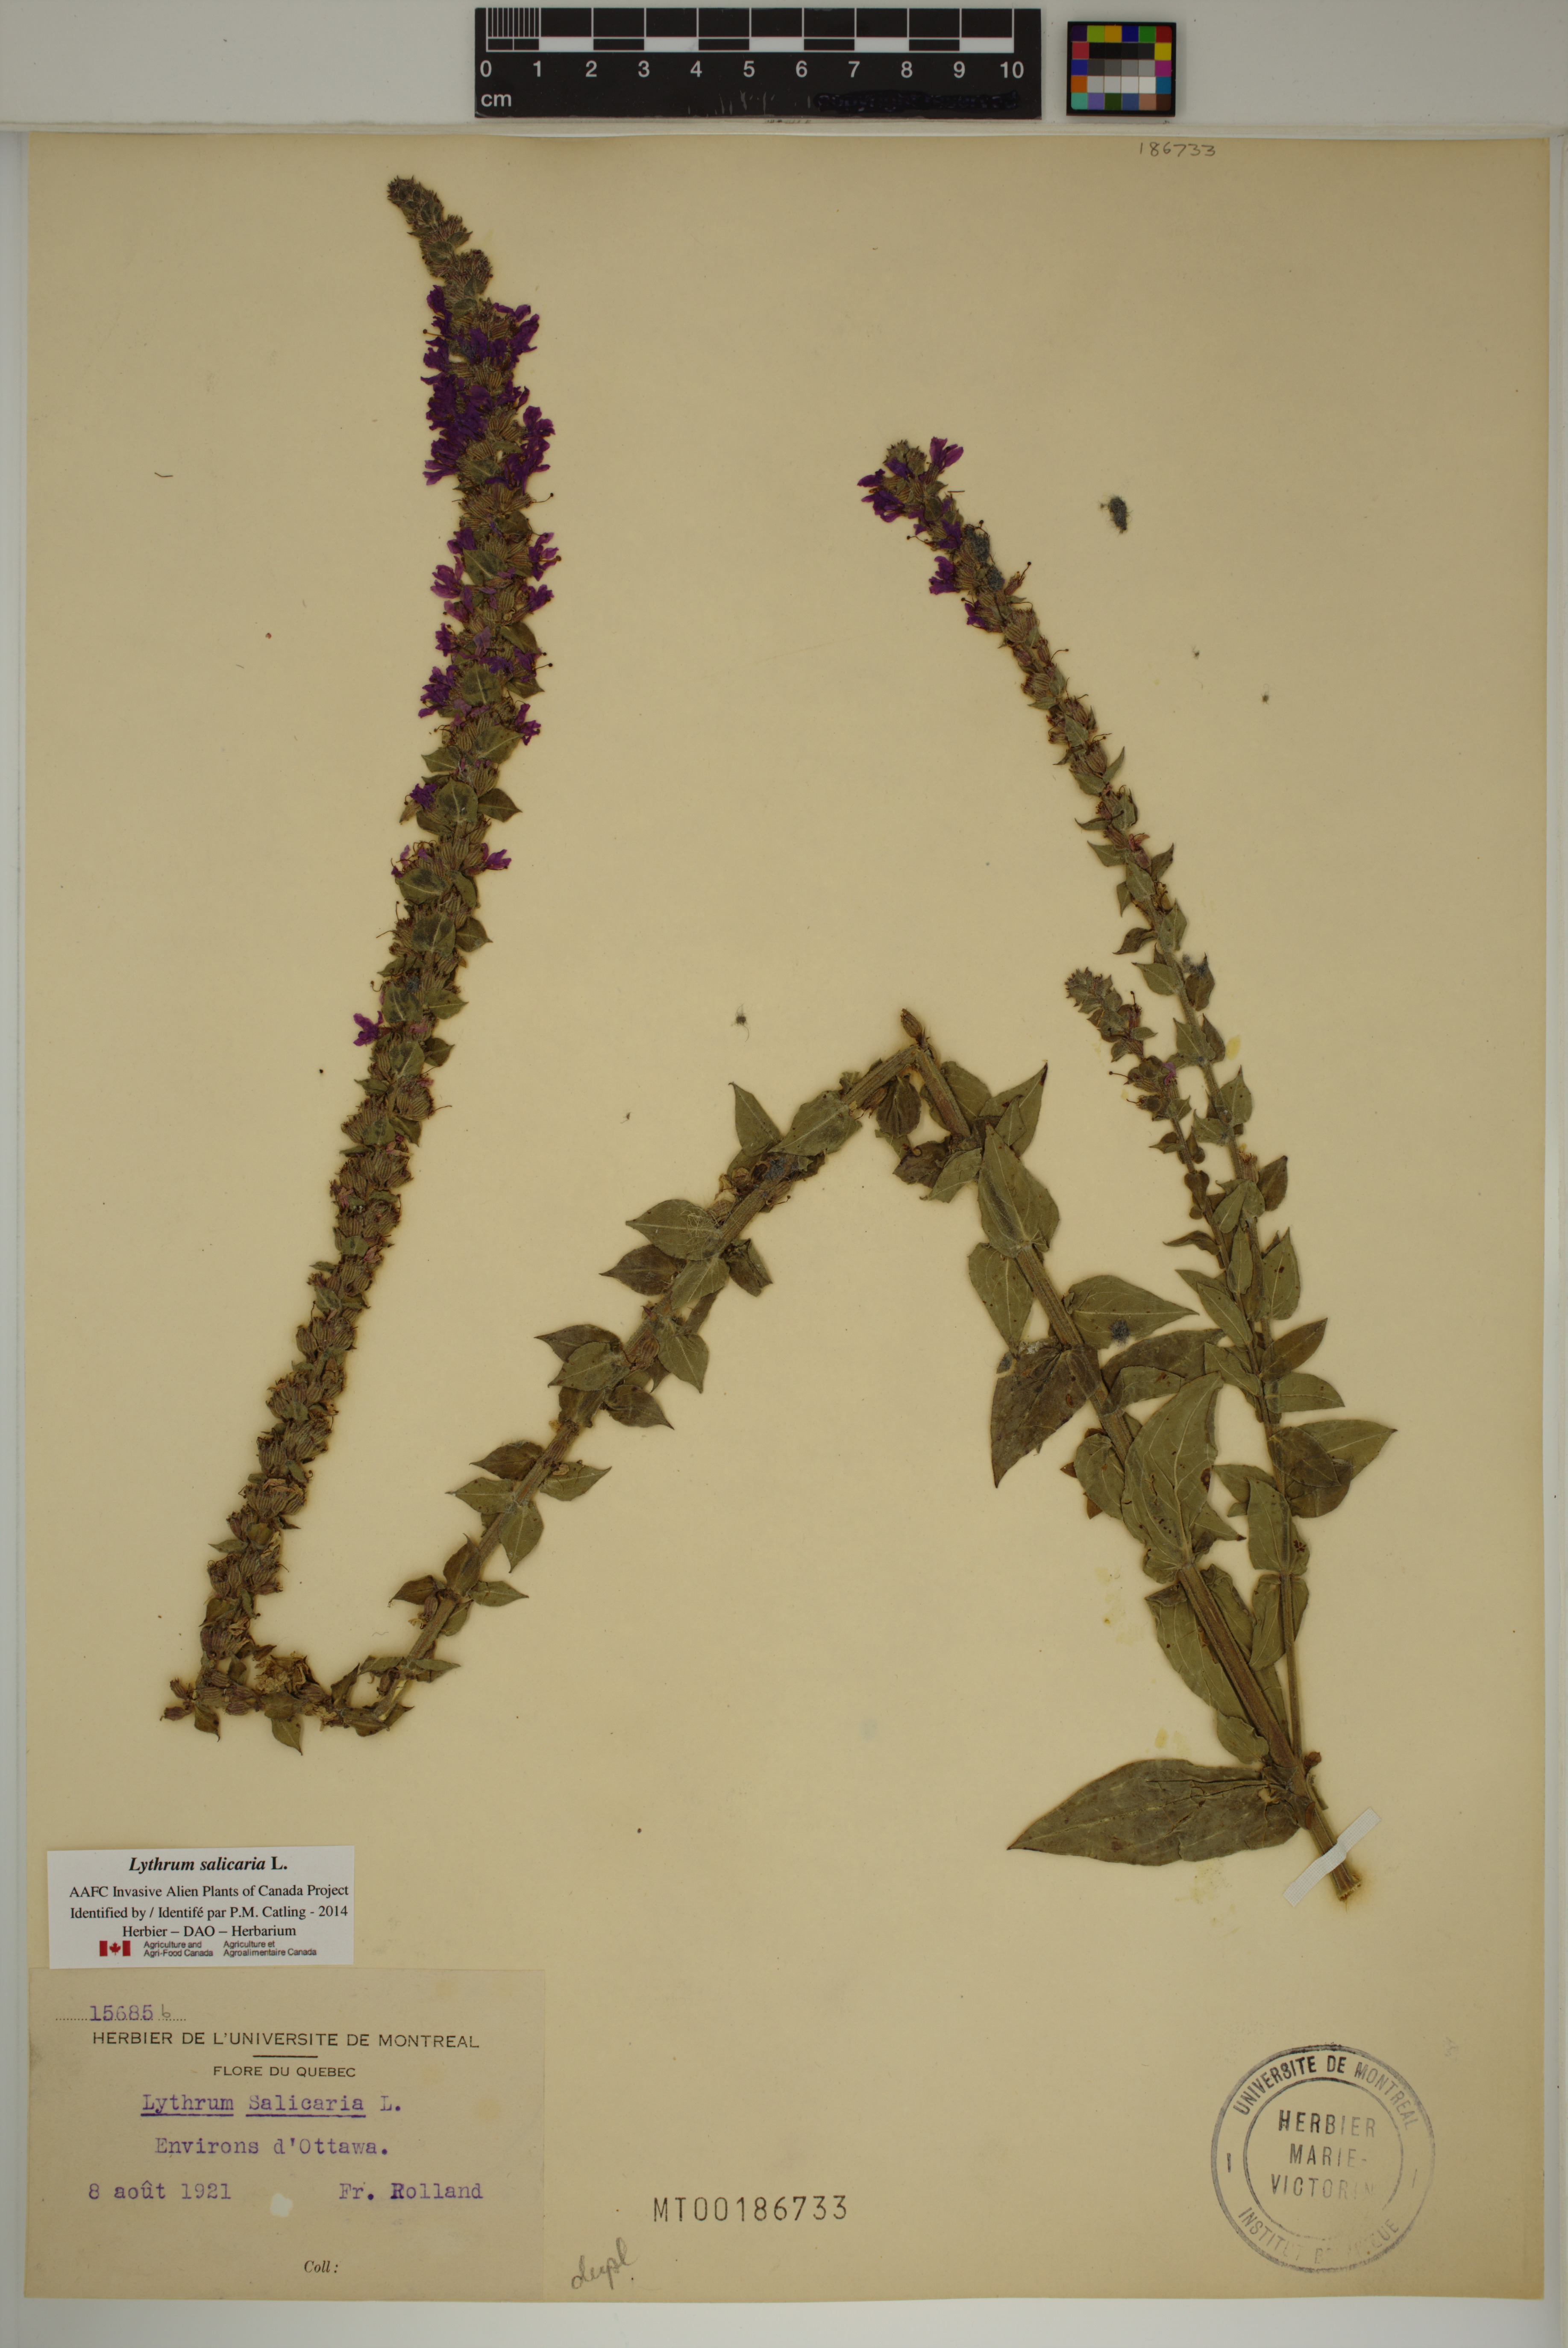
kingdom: Plantae
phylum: Tracheophyta
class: Magnoliopsida
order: Myrtales
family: Lythraceae
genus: Lythrum
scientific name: Lythrum salicaria
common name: Purple loosestrife
